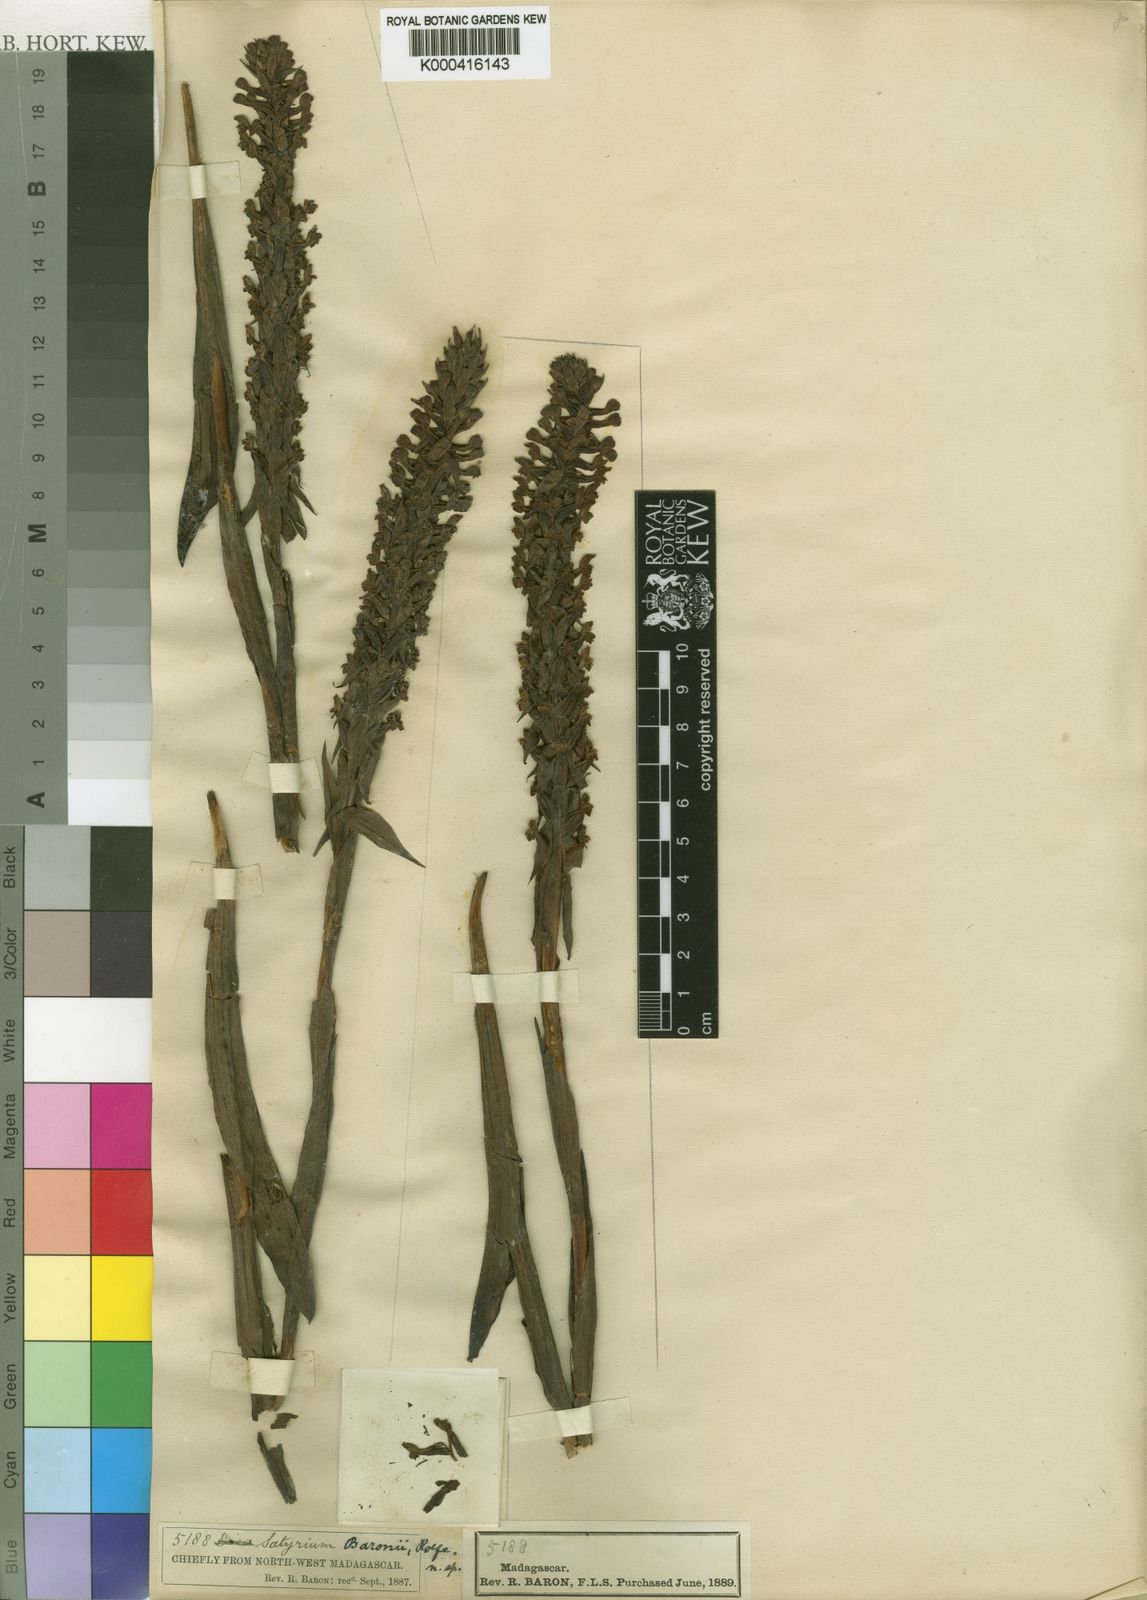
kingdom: Plantae
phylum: Tracheophyta
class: Liliopsida
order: Asparagales
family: Orchidaceae
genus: Satyrium
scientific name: Satyrium
